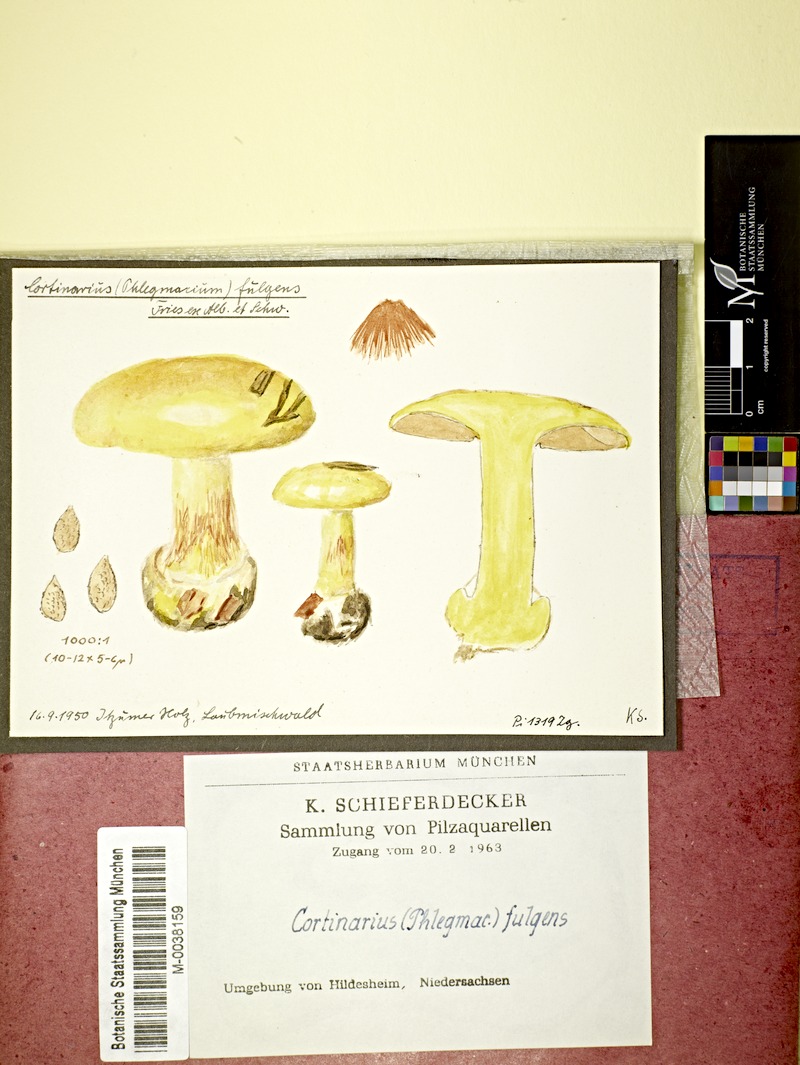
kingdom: Fungi
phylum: Basidiomycota
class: Agaricomycetes
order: Agaricales
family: Cortinariaceae
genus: Cortinarius
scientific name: Cortinarius fulgens
